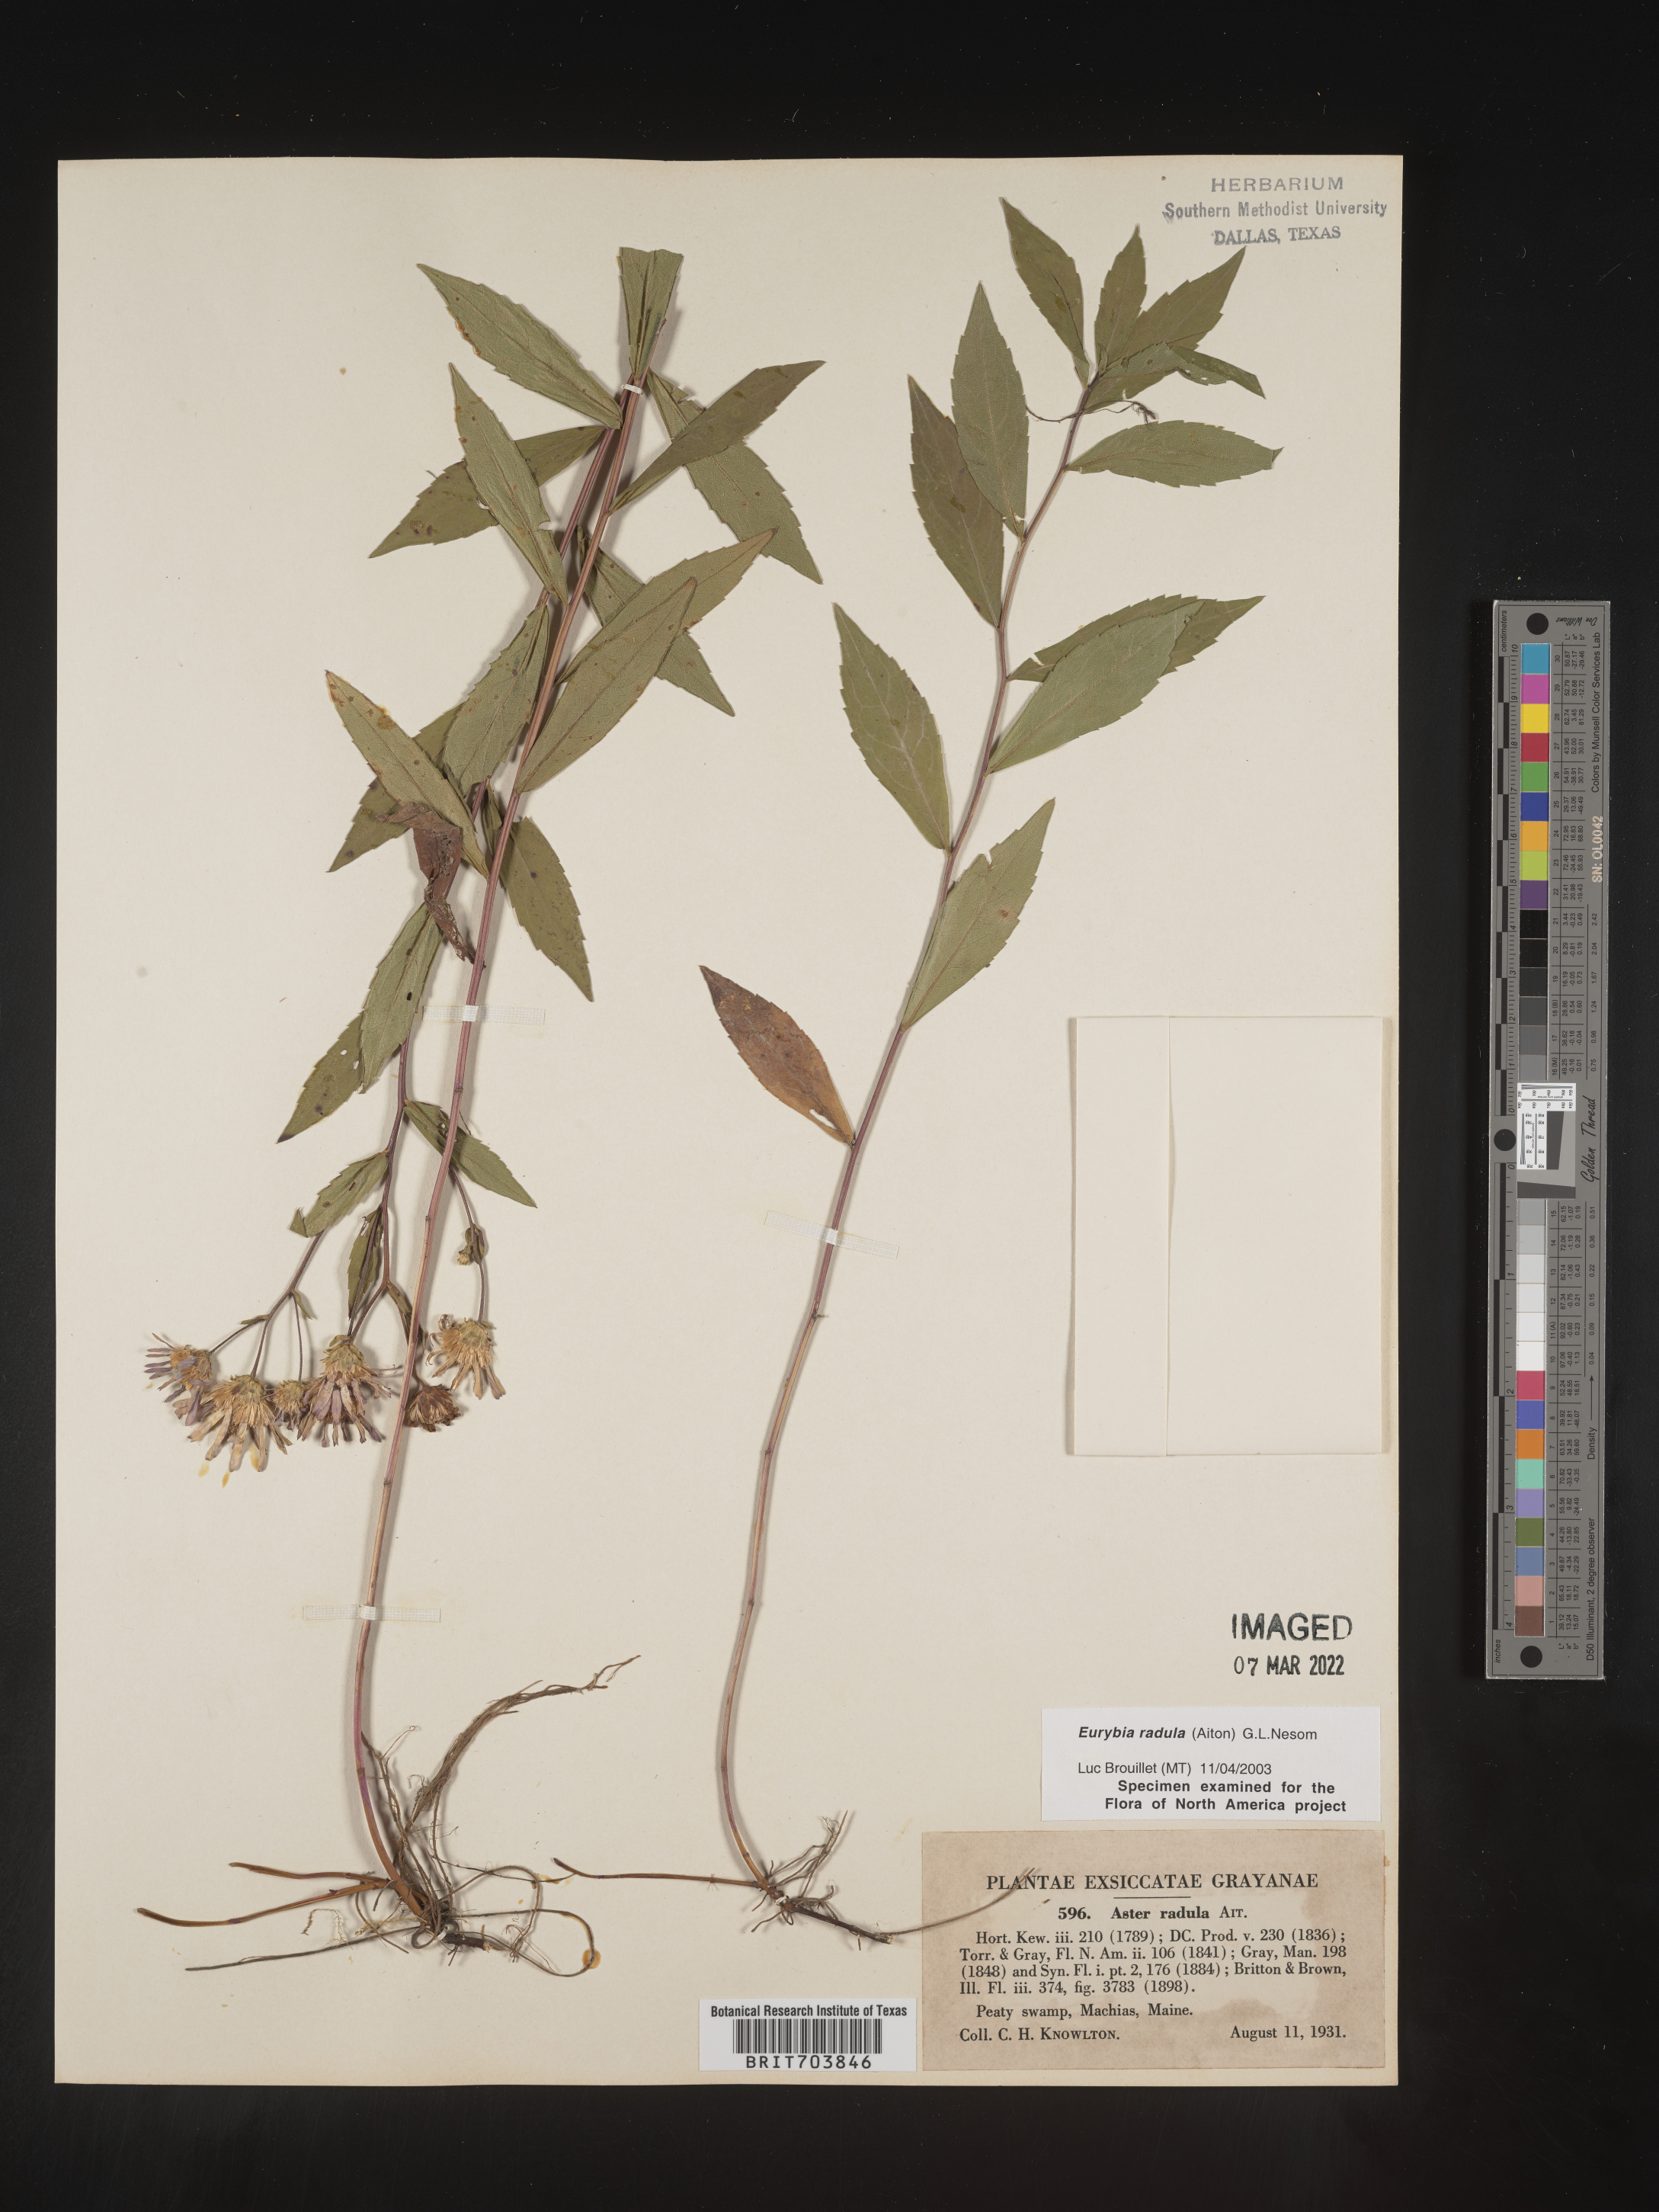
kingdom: Plantae
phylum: Tracheophyta
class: Magnoliopsida
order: Asterales
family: Asteraceae
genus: Eurybia
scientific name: Eurybia radula
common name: Low rough aster
